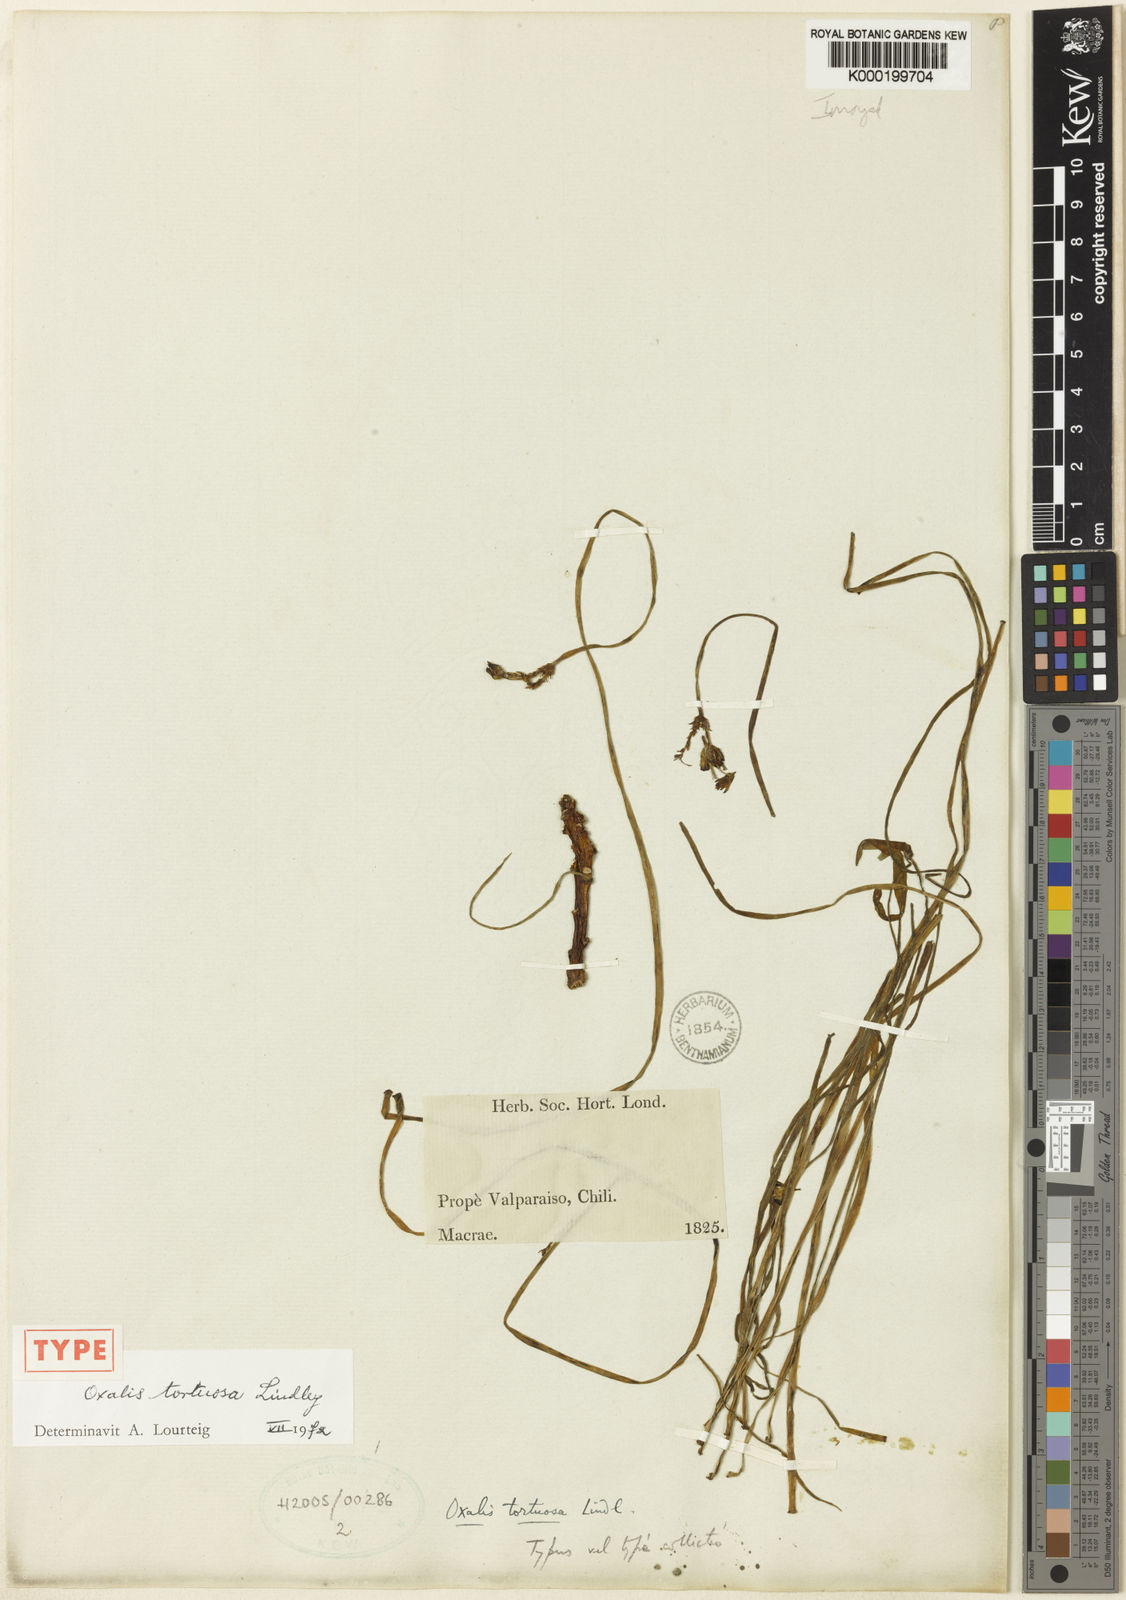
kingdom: Plantae
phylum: Tracheophyta
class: Magnoliopsida
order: Oxalidales
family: Oxalidaceae
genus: Oxalis
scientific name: Oxalis tortuosa
